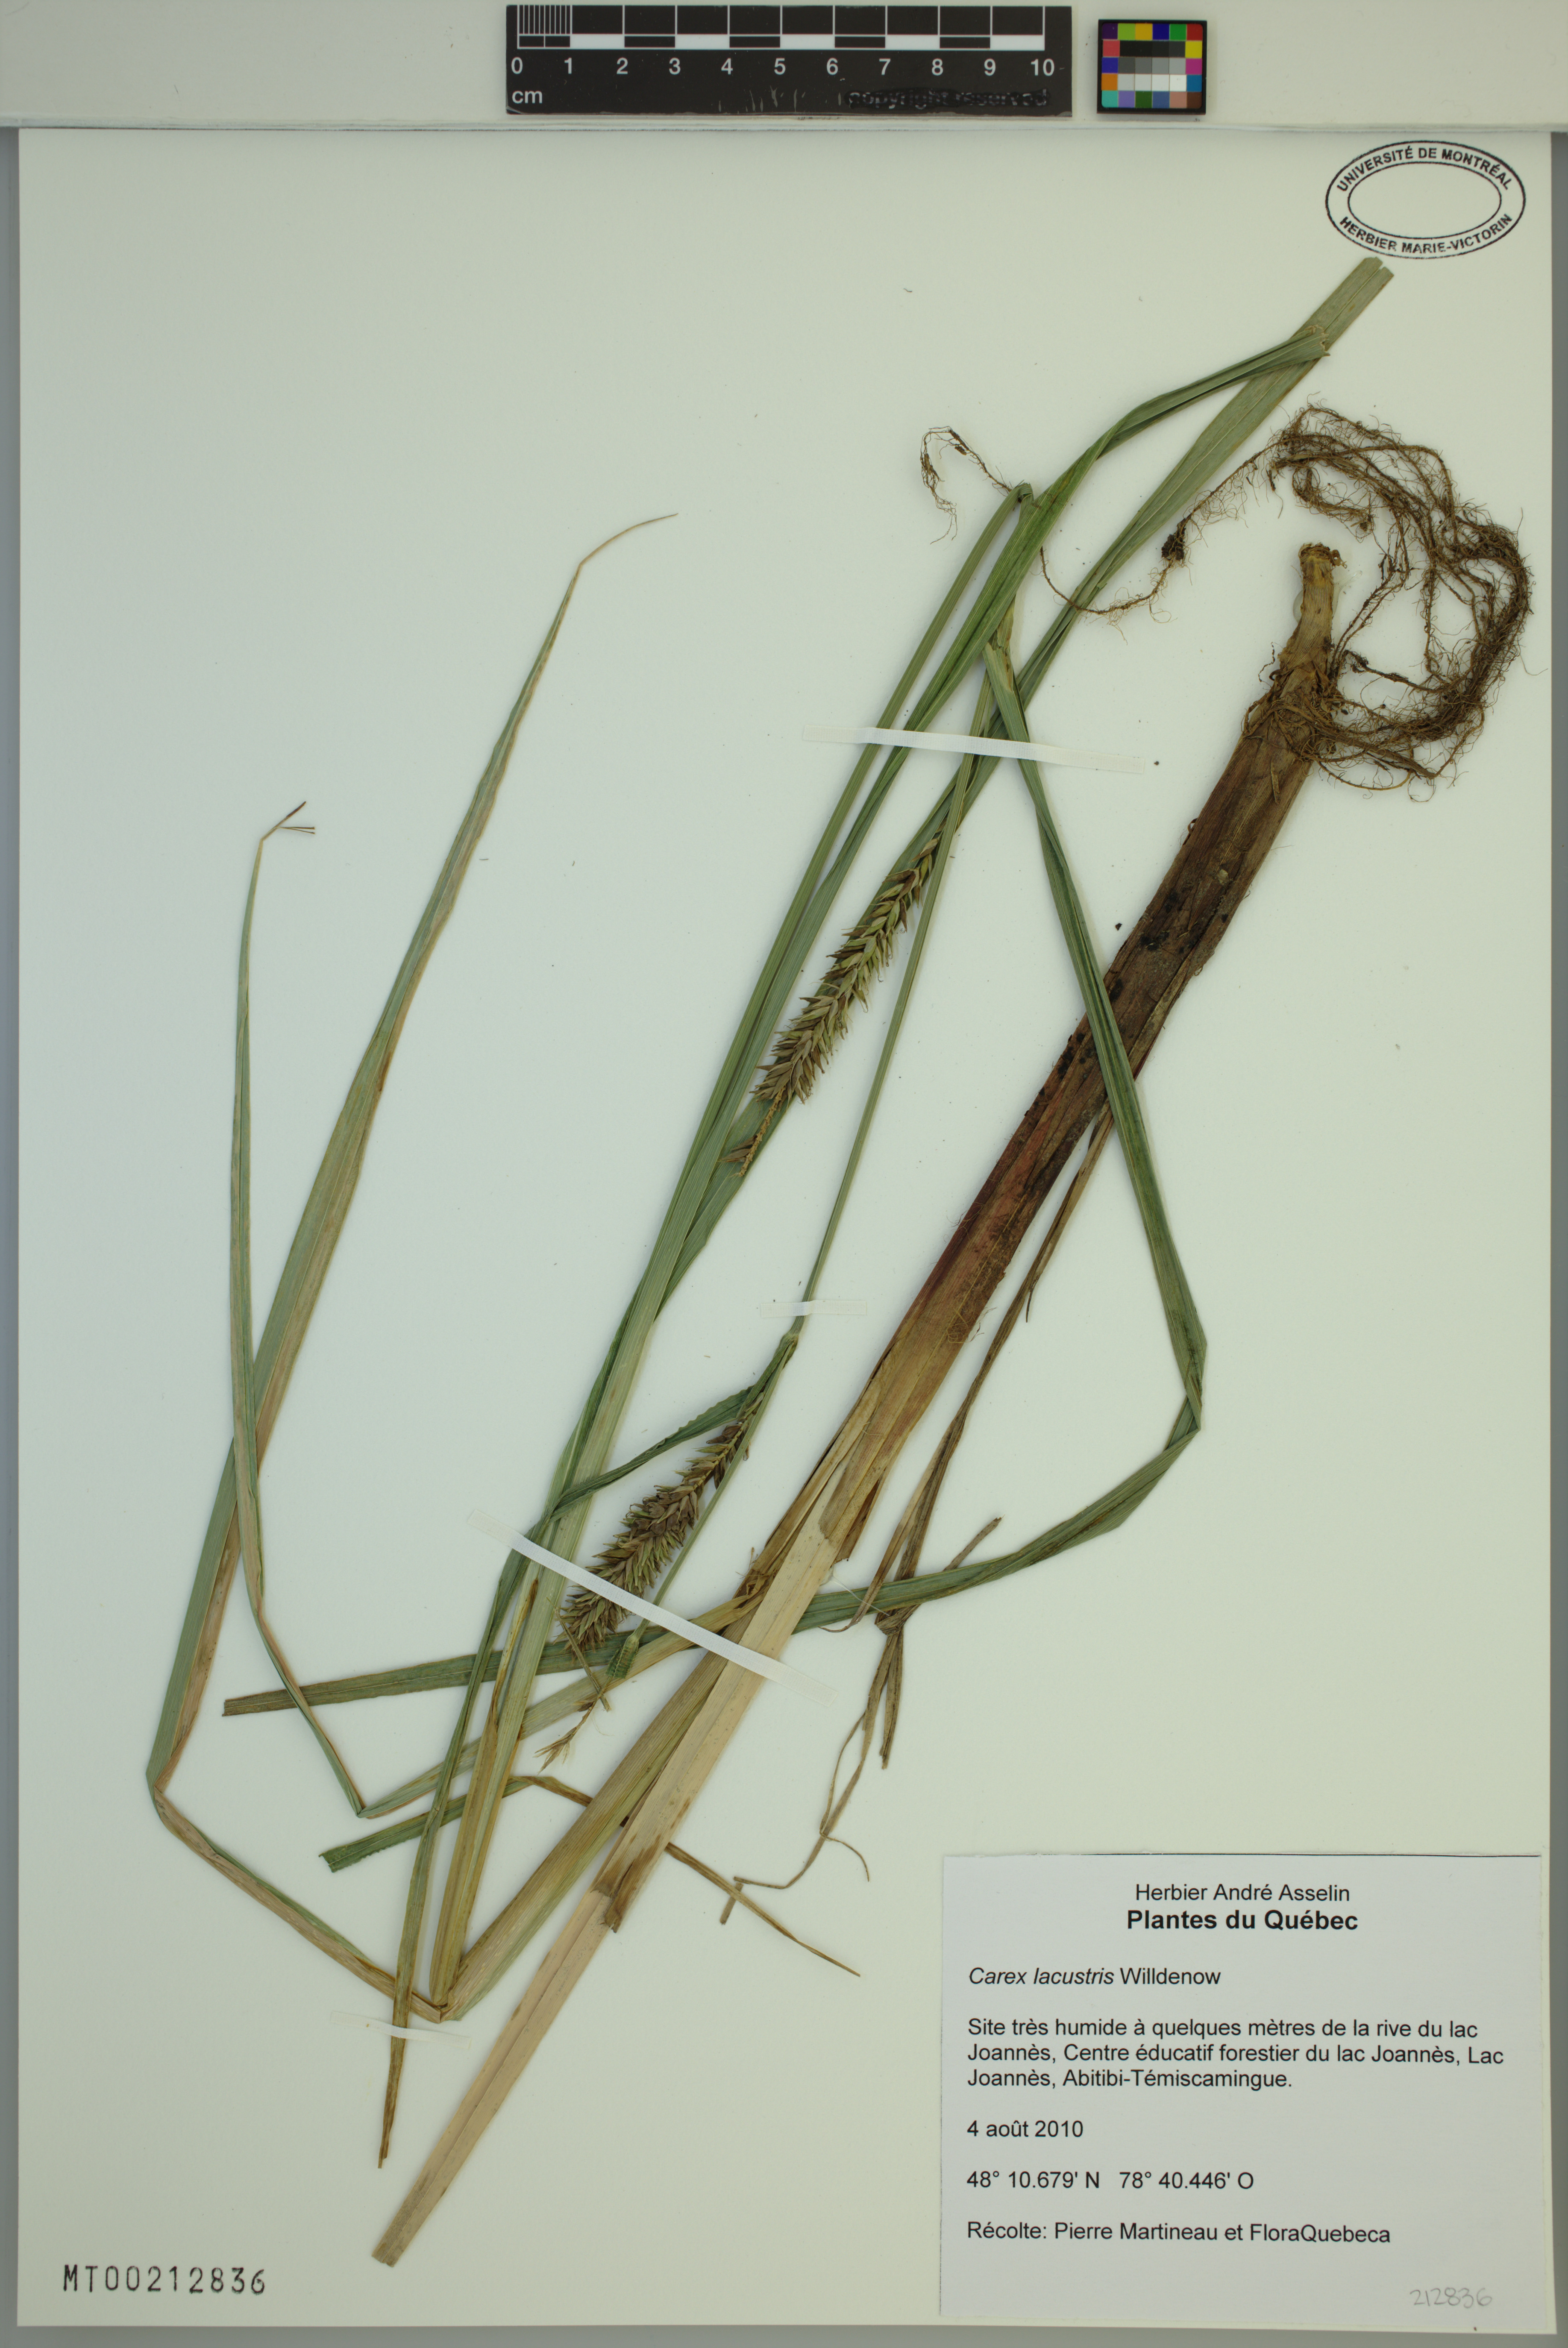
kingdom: Plantae
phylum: Tracheophyta
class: Liliopsida
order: Poales
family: Cyperaceae
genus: Carex
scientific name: Carex lacustris
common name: Common lake sedge
